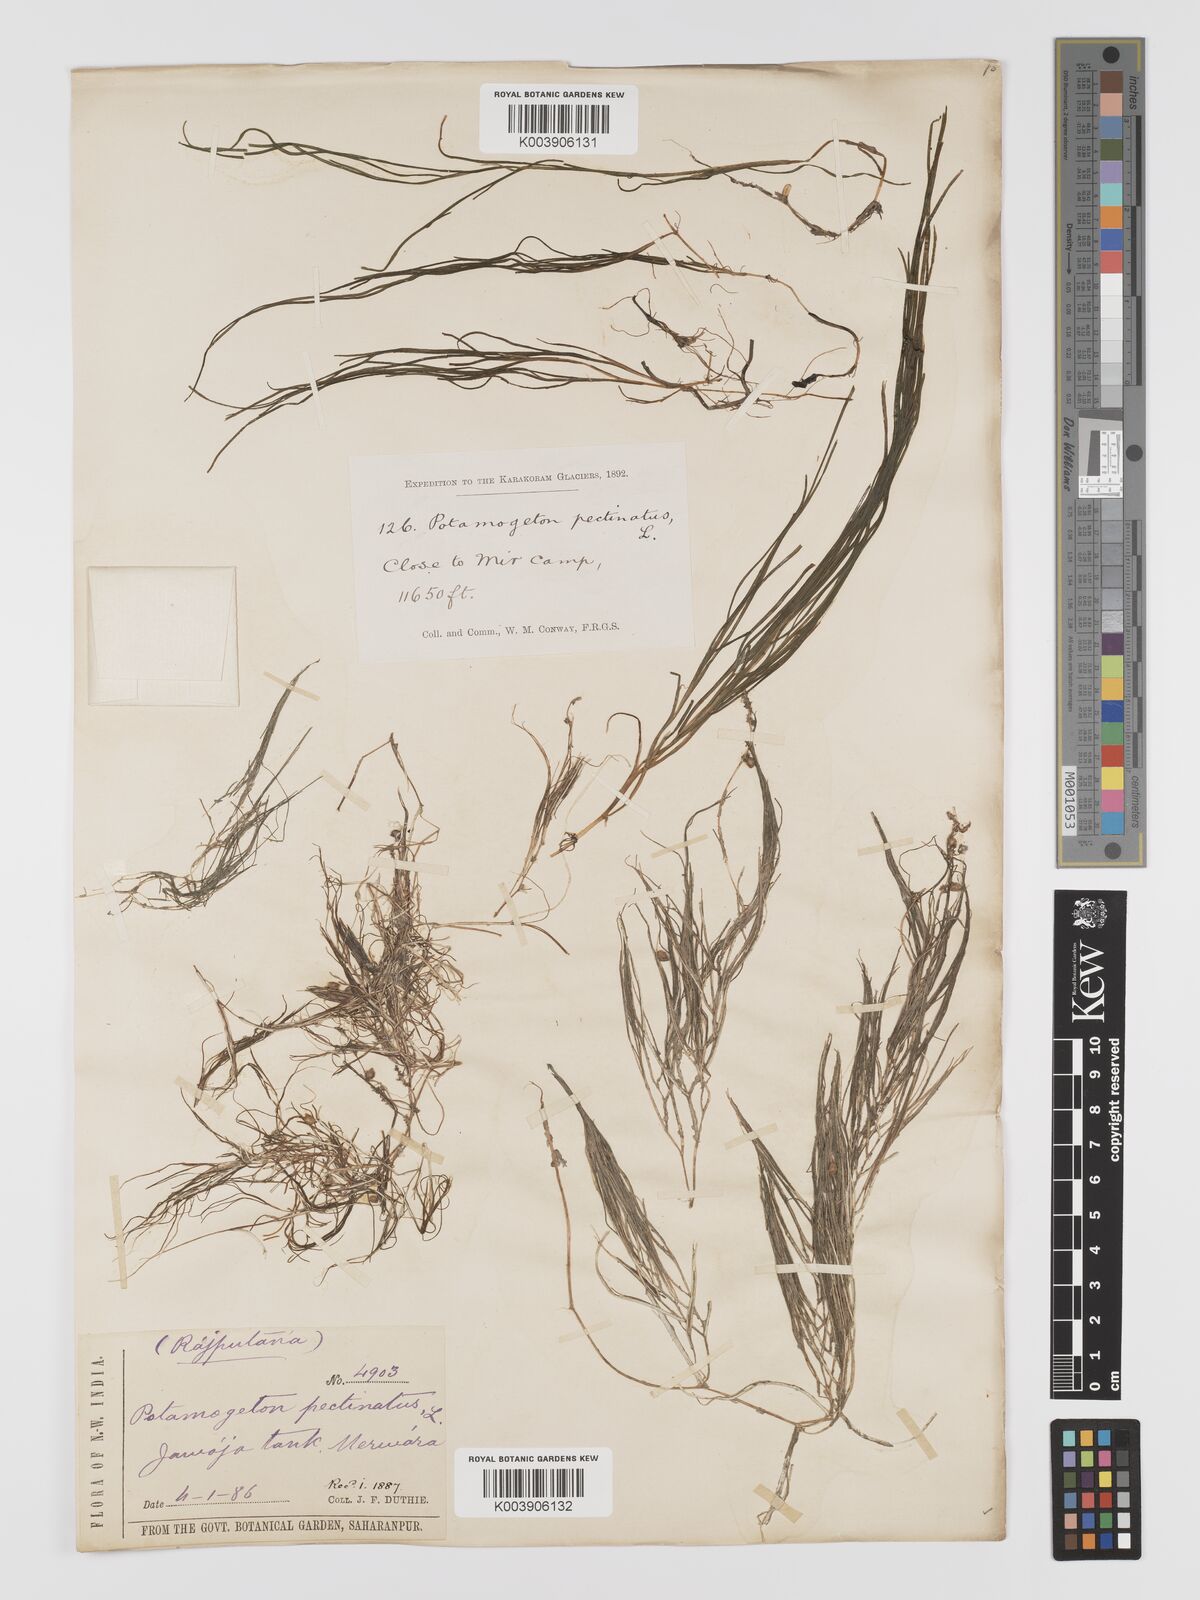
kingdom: Plantae
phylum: Tracheophyta
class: Liliopsida
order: Alismatales
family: Potamogetonaceae
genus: Stuckenia
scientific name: Stuckenia pectinata
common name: Sago pondweed
